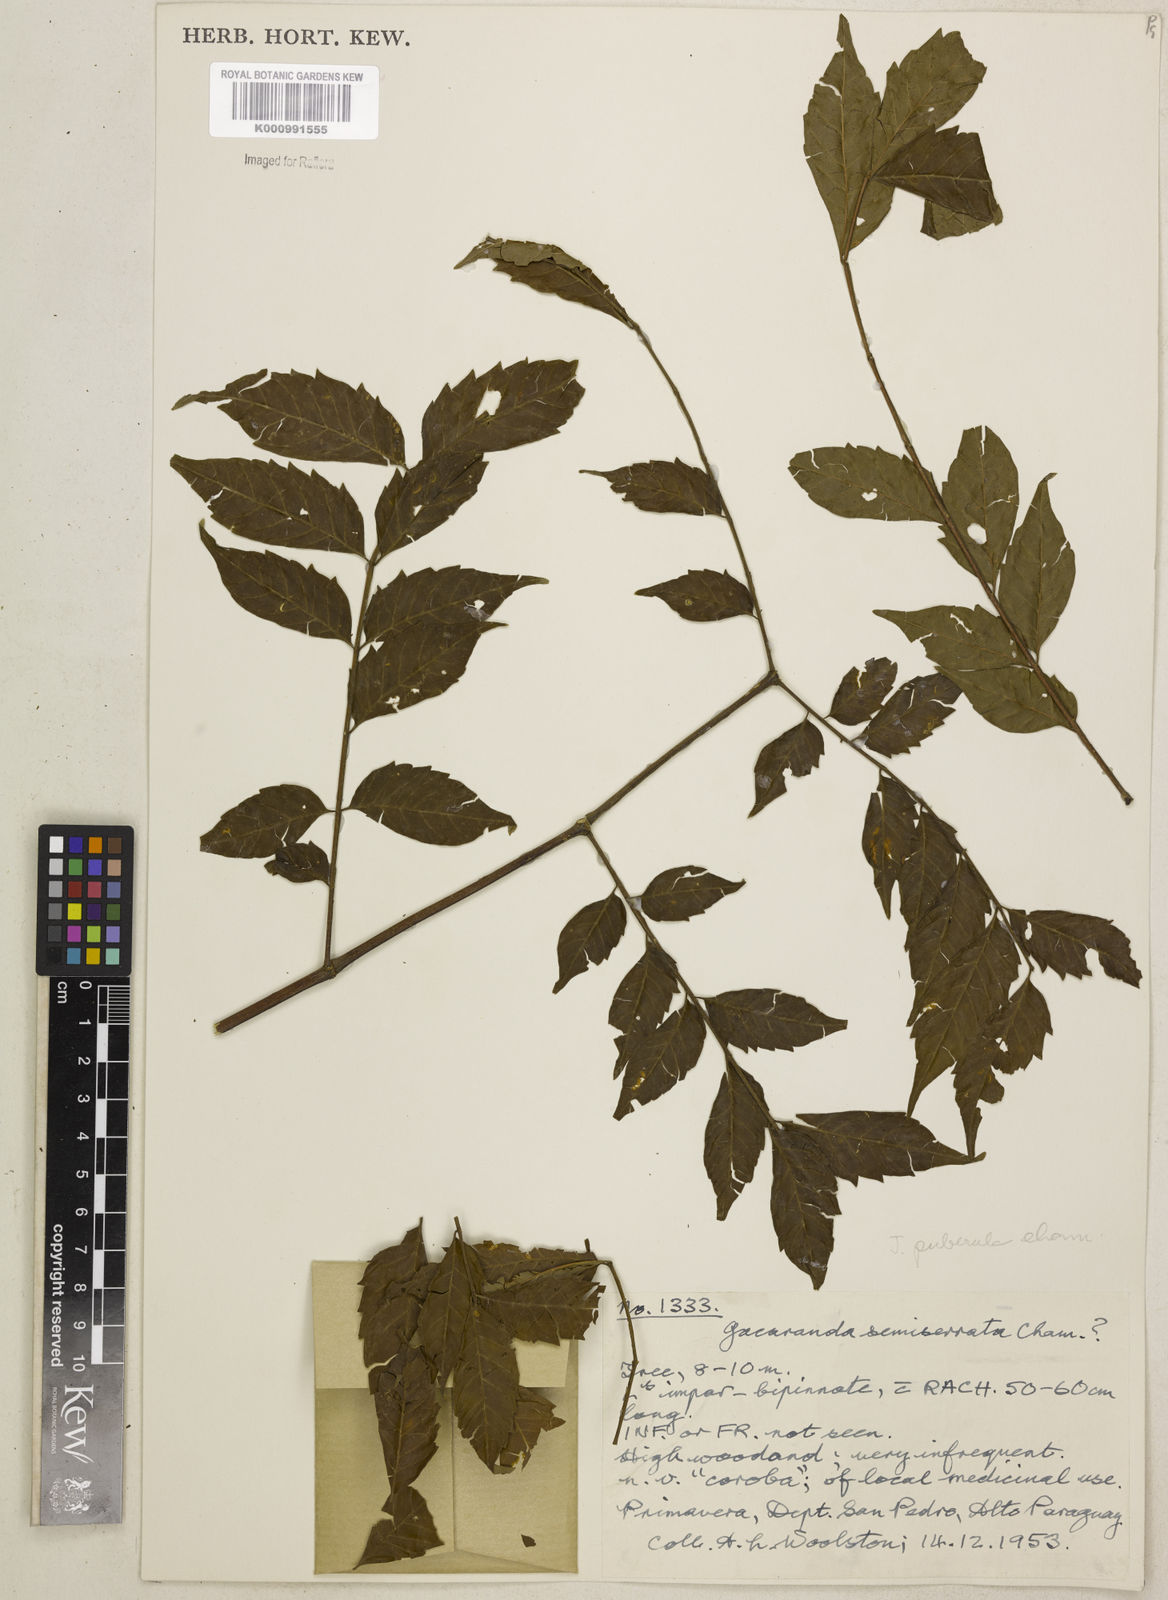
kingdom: Plantae
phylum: Tracheophyta
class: Magnoliopsida
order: Lamiales
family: Bignoniaceae
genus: Jacaranda
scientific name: Jacaranda puberula
